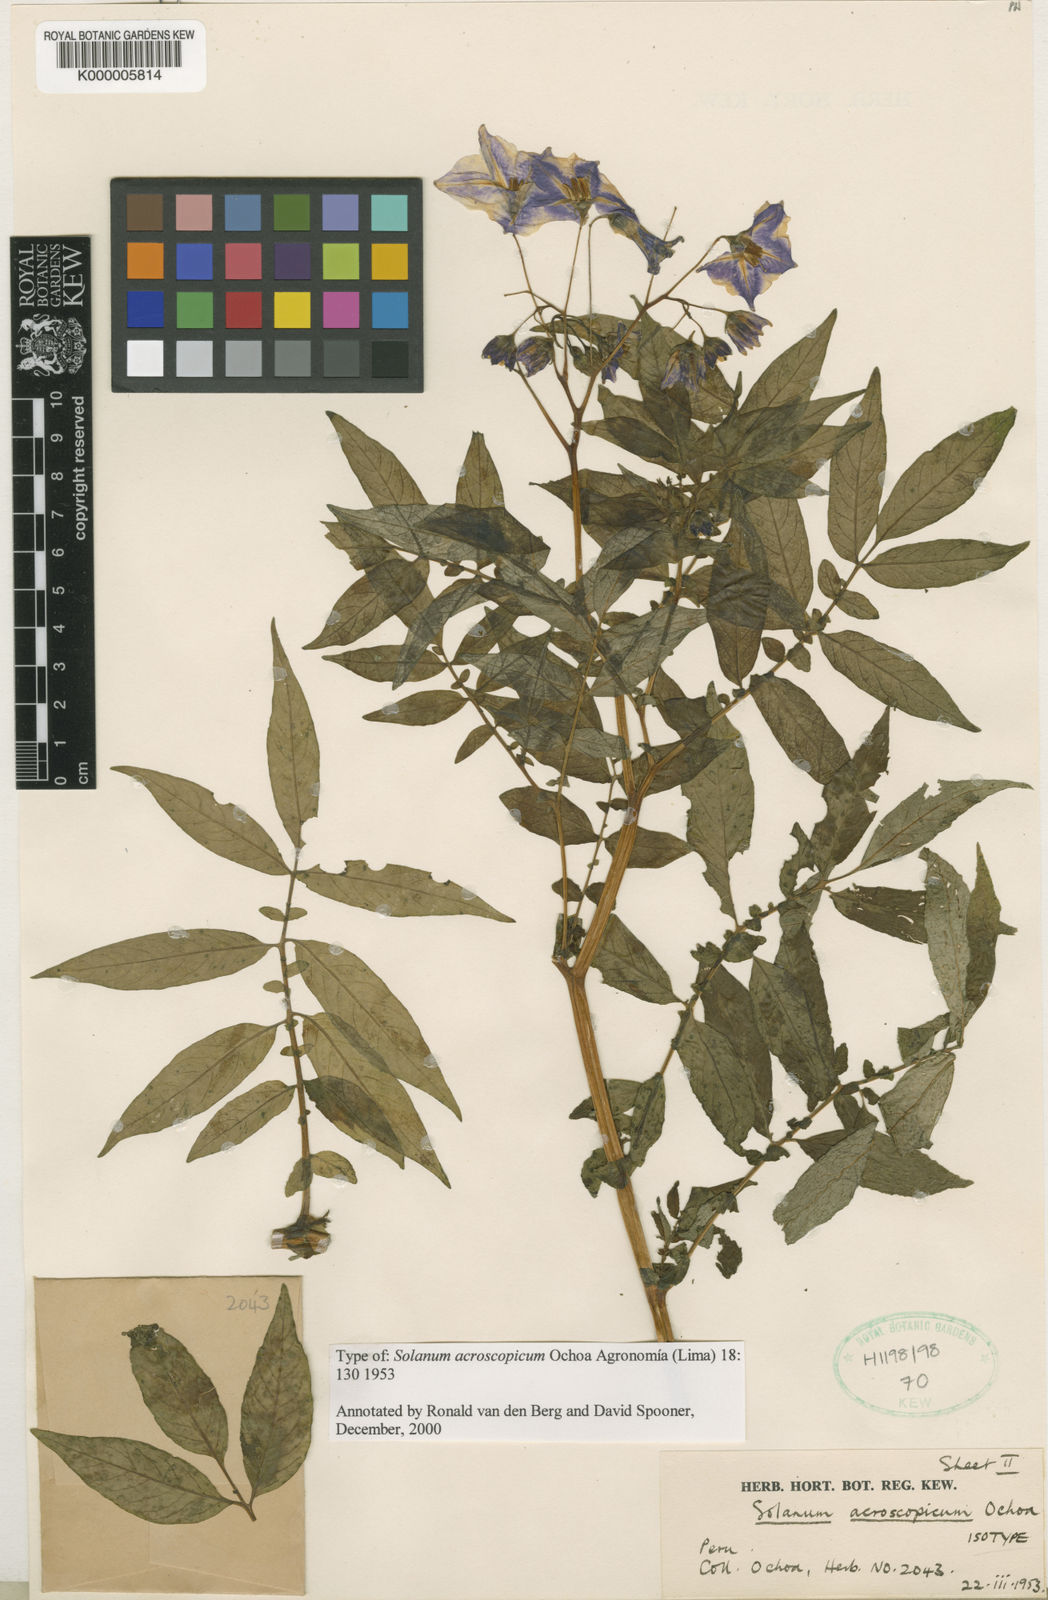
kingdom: Plantae
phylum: Tracheophyta
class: Magnoliopsida
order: Solanales
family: Solanaceae
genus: Solanum
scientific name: Solanum acroscopicum
